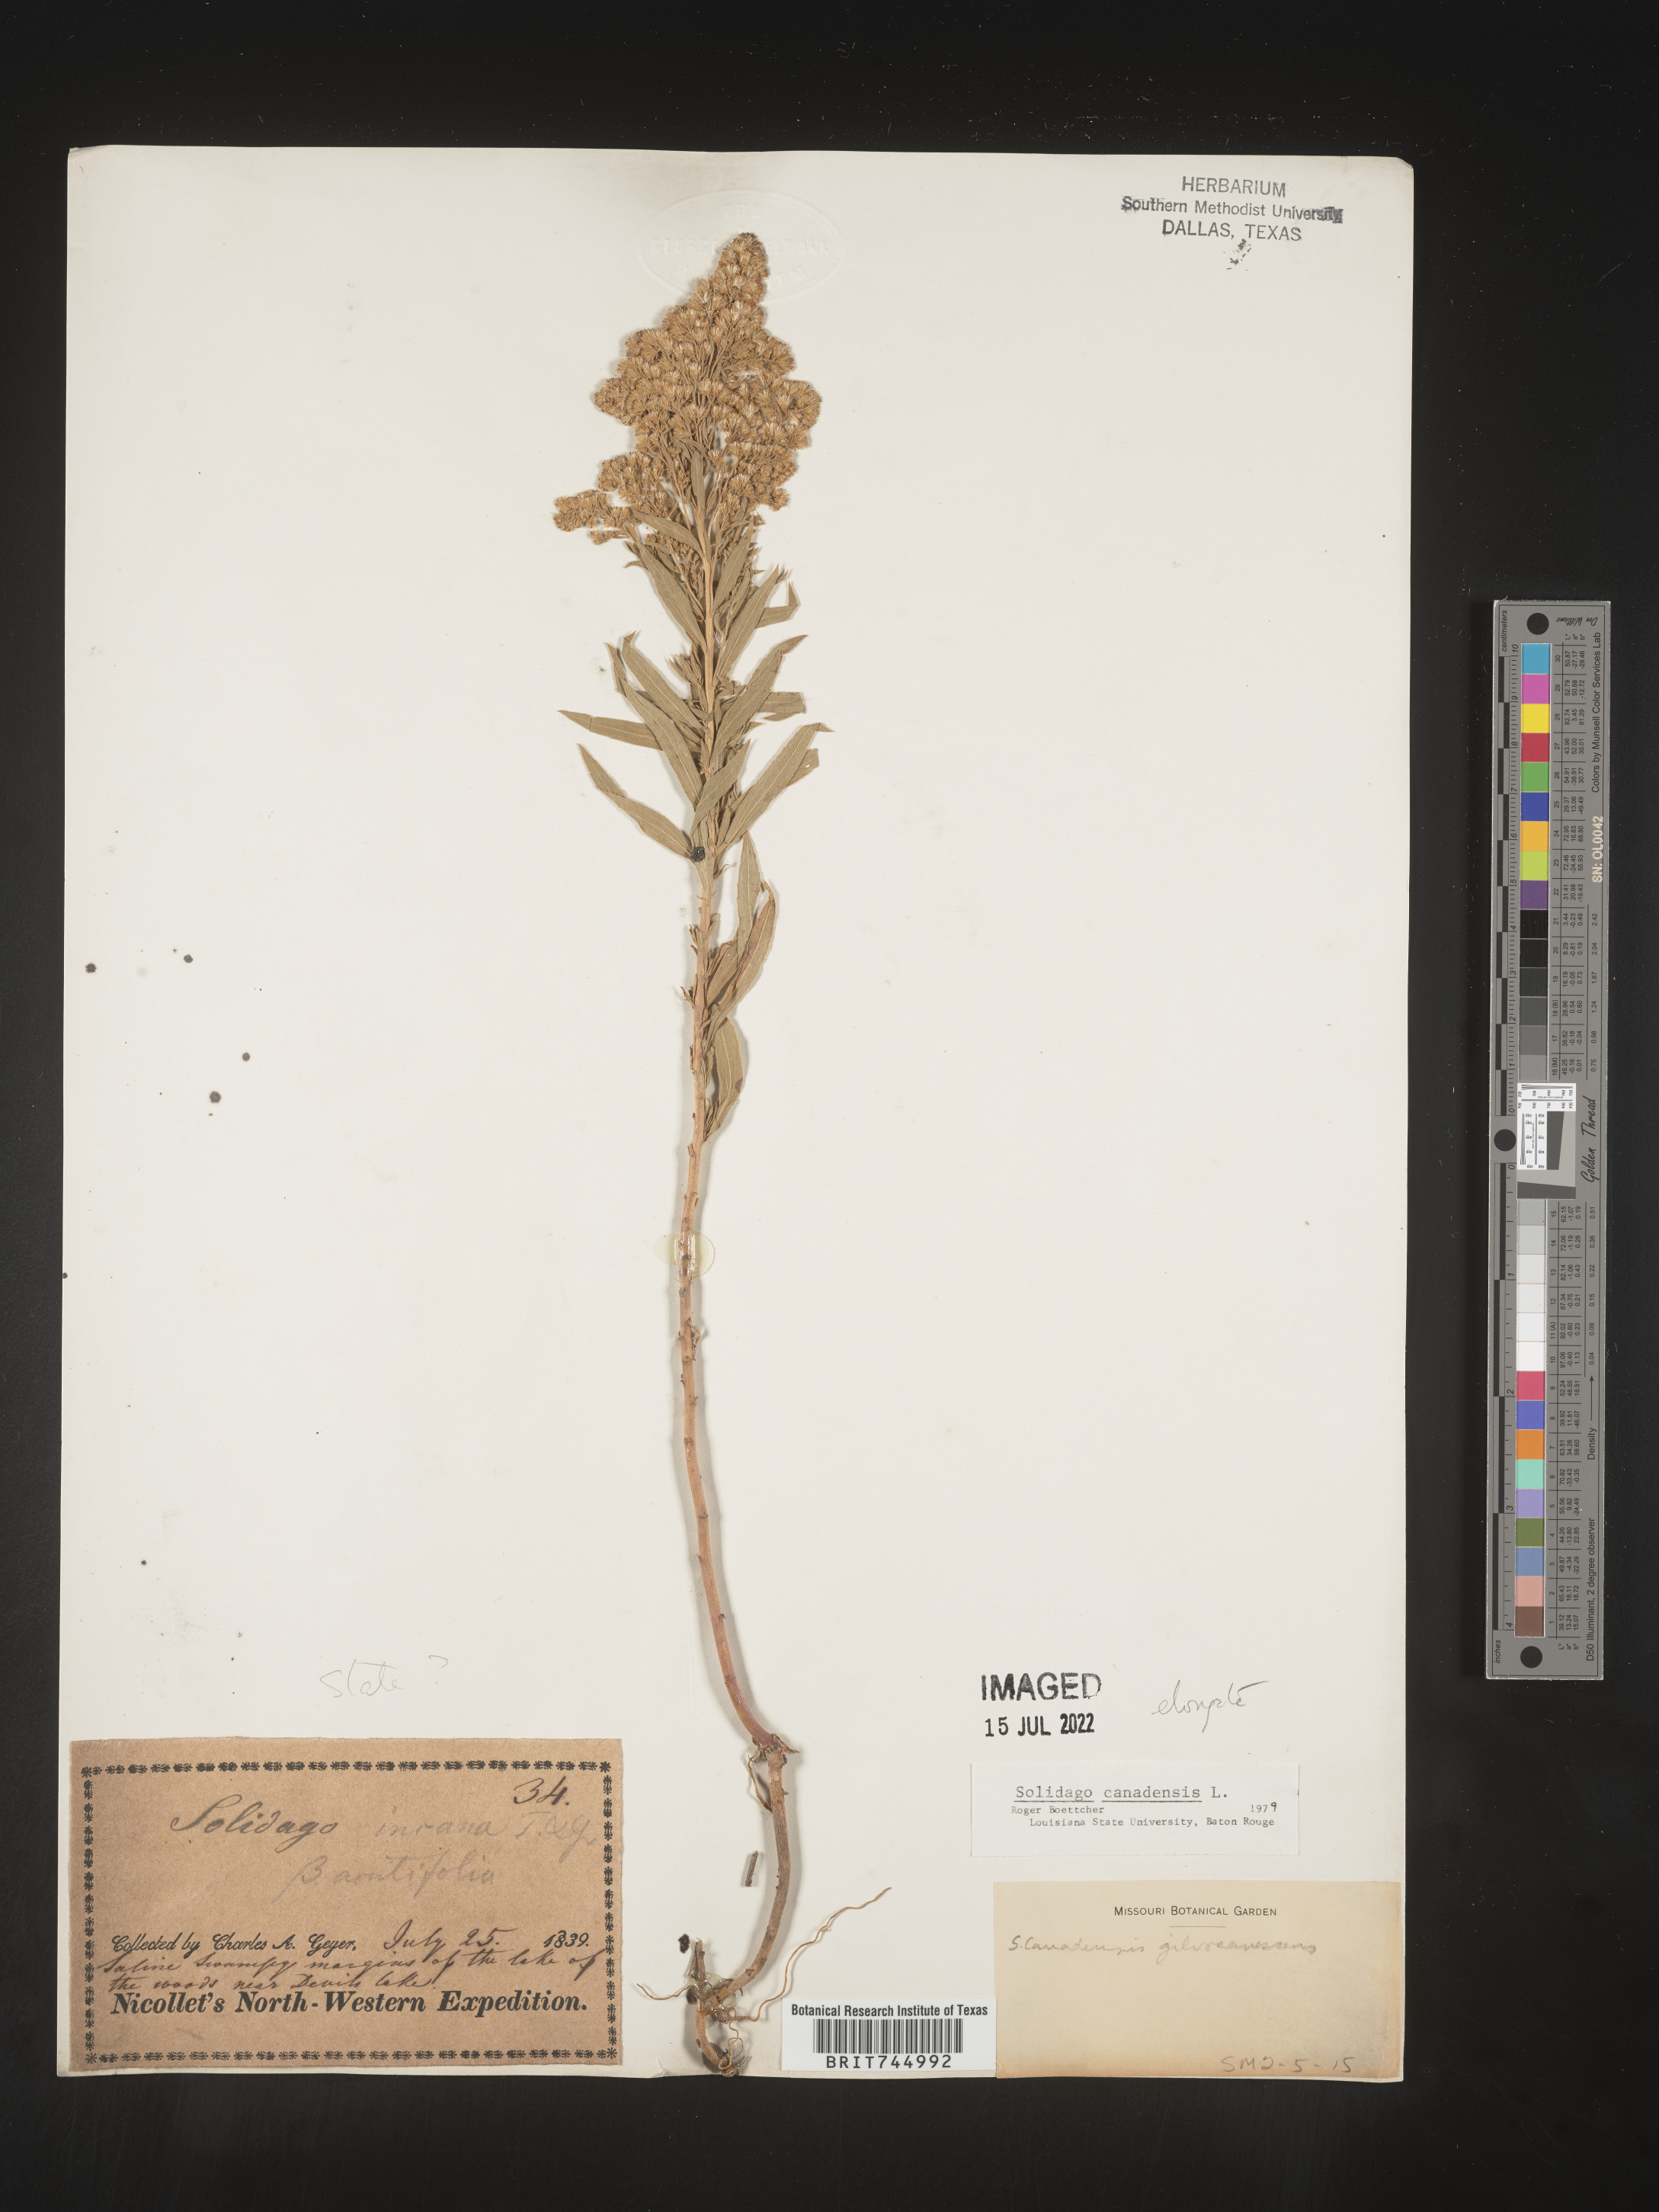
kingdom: Plantae
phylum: Tracheophyta
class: Magnoliopsida
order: Asterales
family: Asteraceae
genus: Solidago
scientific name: Solidago canadensis
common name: Canada goldenrod
